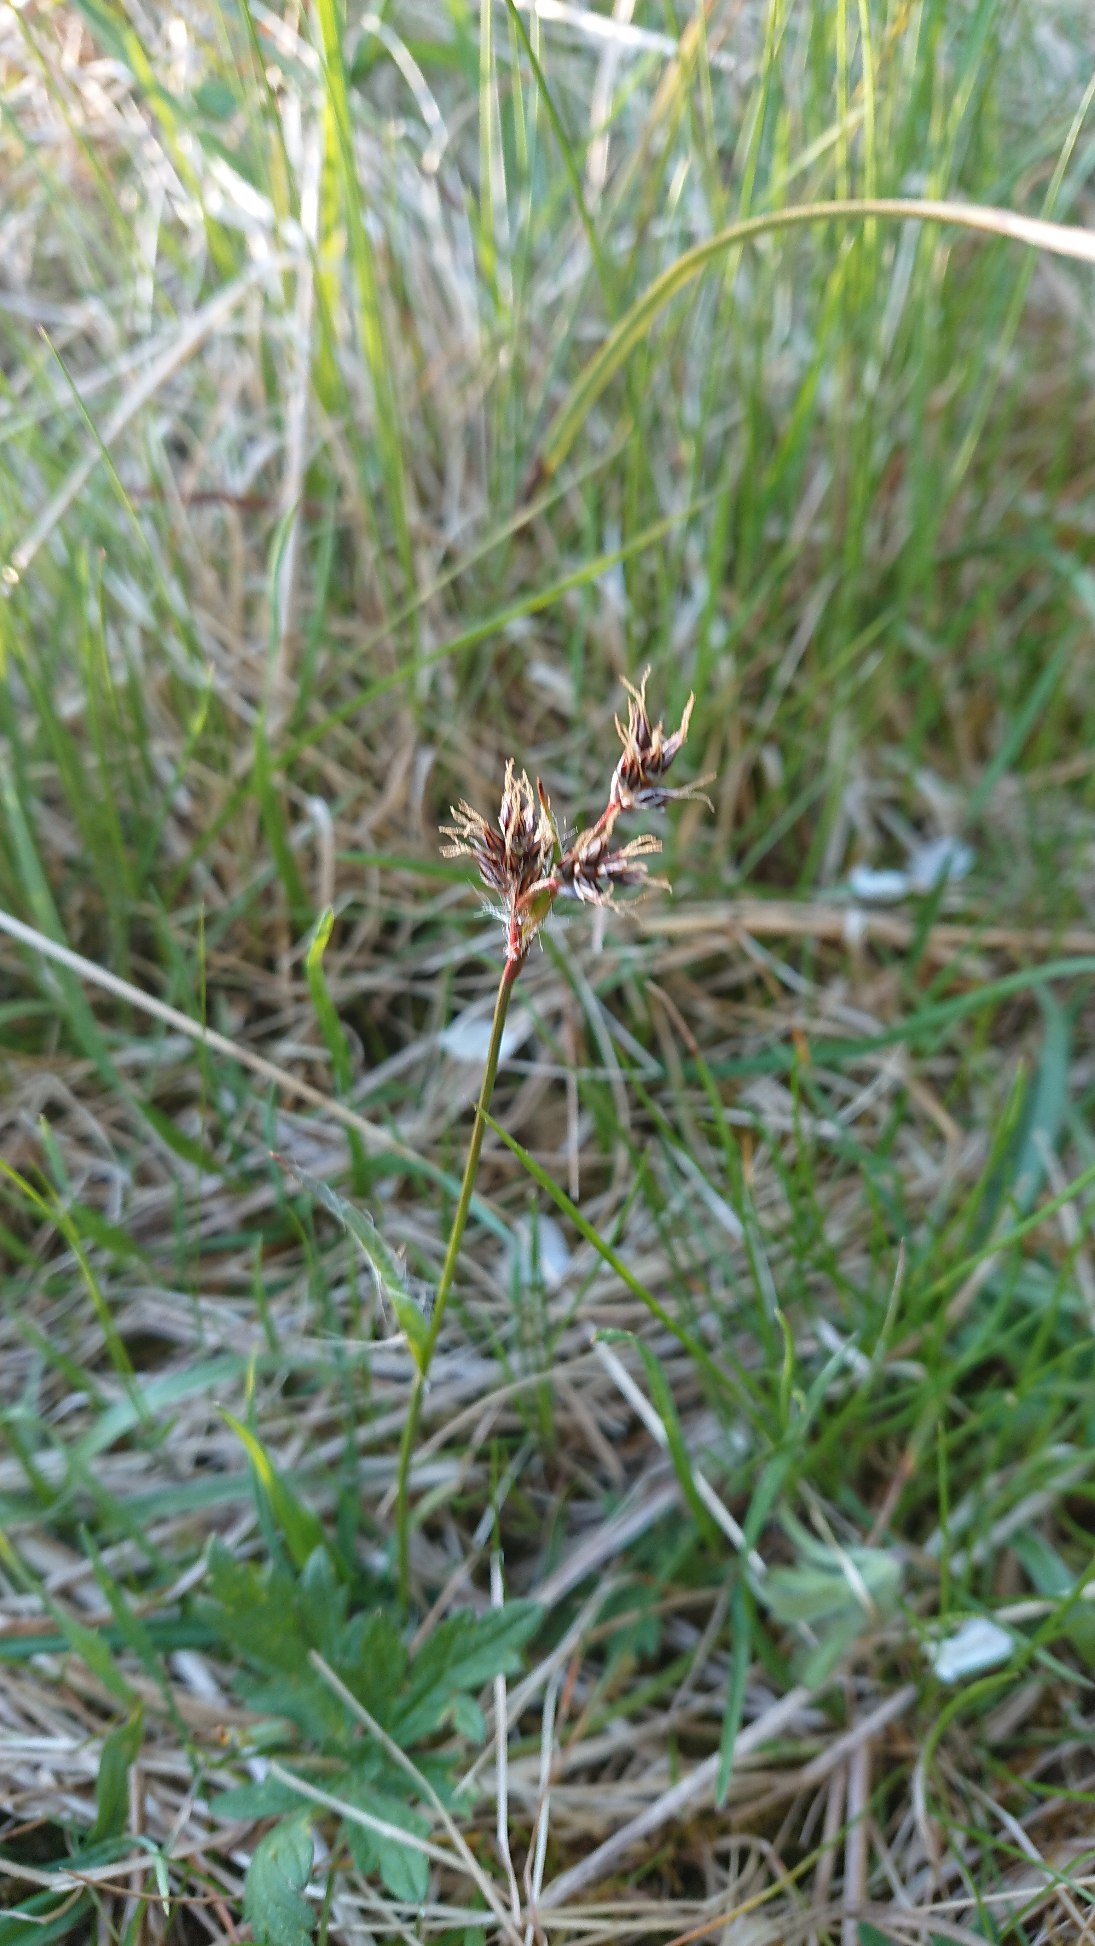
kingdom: Plantae
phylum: Tracheophyta
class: Liliopsida
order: Poales
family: Juncaceae
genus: Luzula
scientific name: Luzula campestris
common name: Mark-frytle
